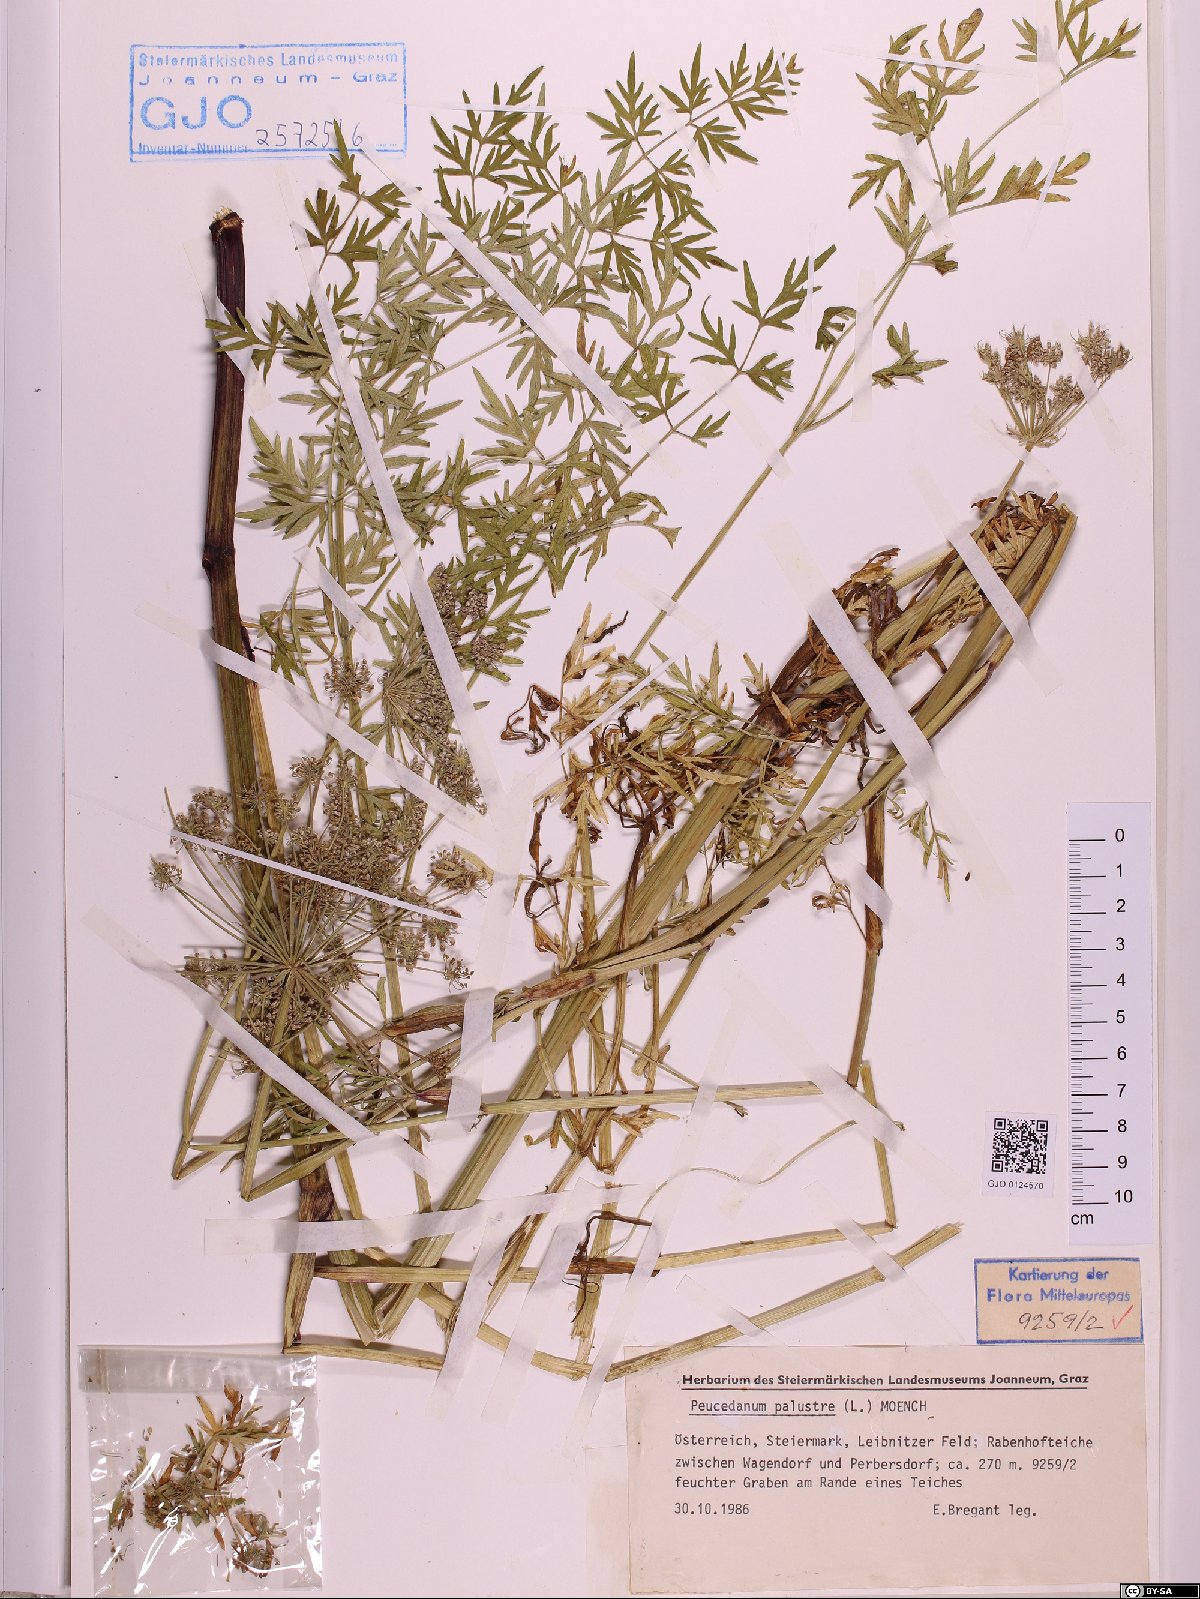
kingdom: Plantae
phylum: Tracheophyta
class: Magnoliopsida
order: Apiales
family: Apiaceae
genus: Thysselinum
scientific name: Thysselinum palustre
